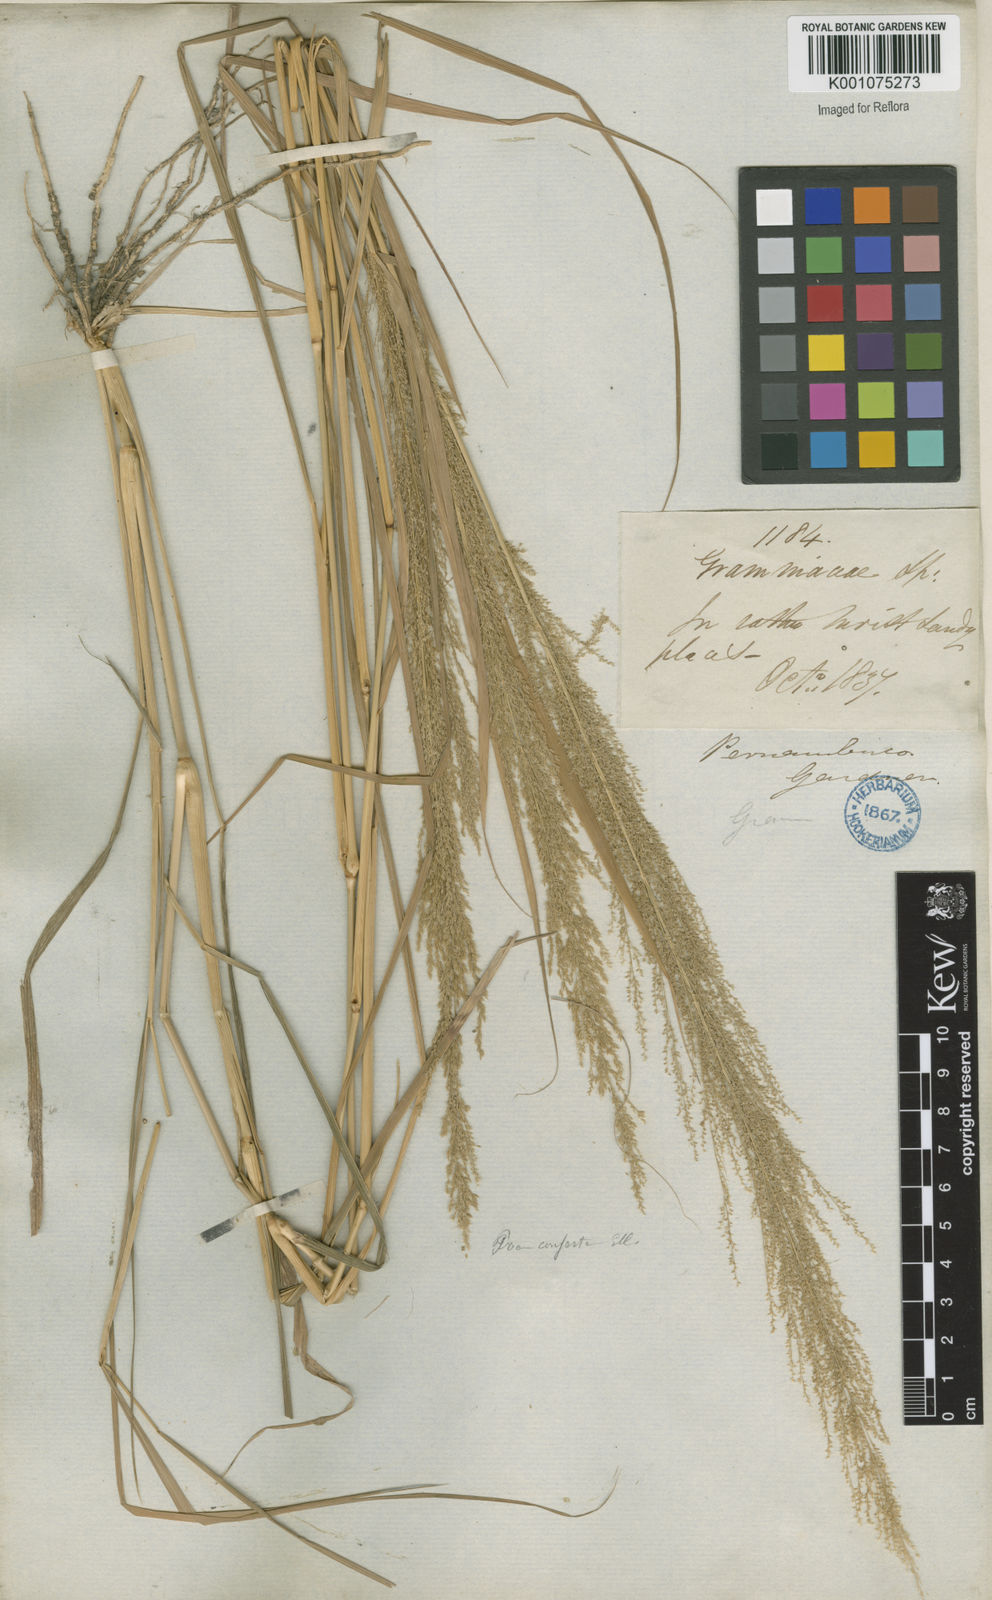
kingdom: Plantae
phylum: Tracheophyta
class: Liliopsida
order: Poales
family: Poaceae
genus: Eragrostis
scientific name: Eragrostis japonica
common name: Pond lovegrass
